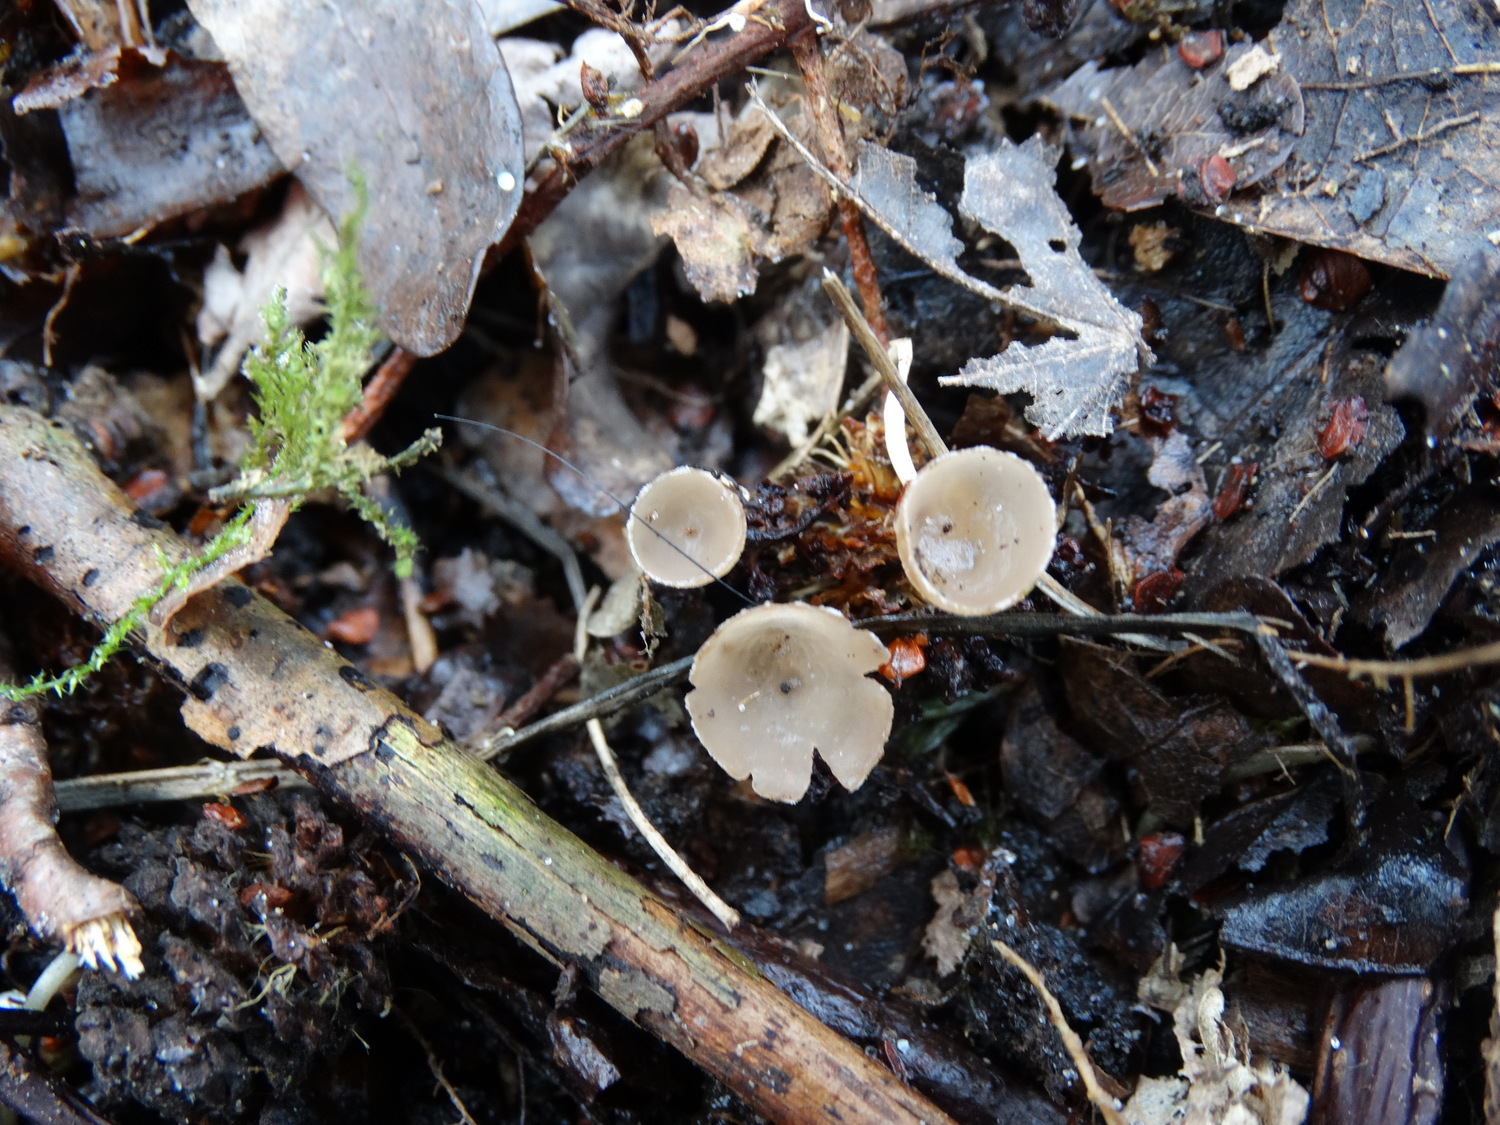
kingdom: Fungi
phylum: Ascomycota
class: Leotiomycetes
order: Helotiales
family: Sclerotiniaceae
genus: Ciboria
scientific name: Ciboria amentacea
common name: ellerakle-knoldskive
